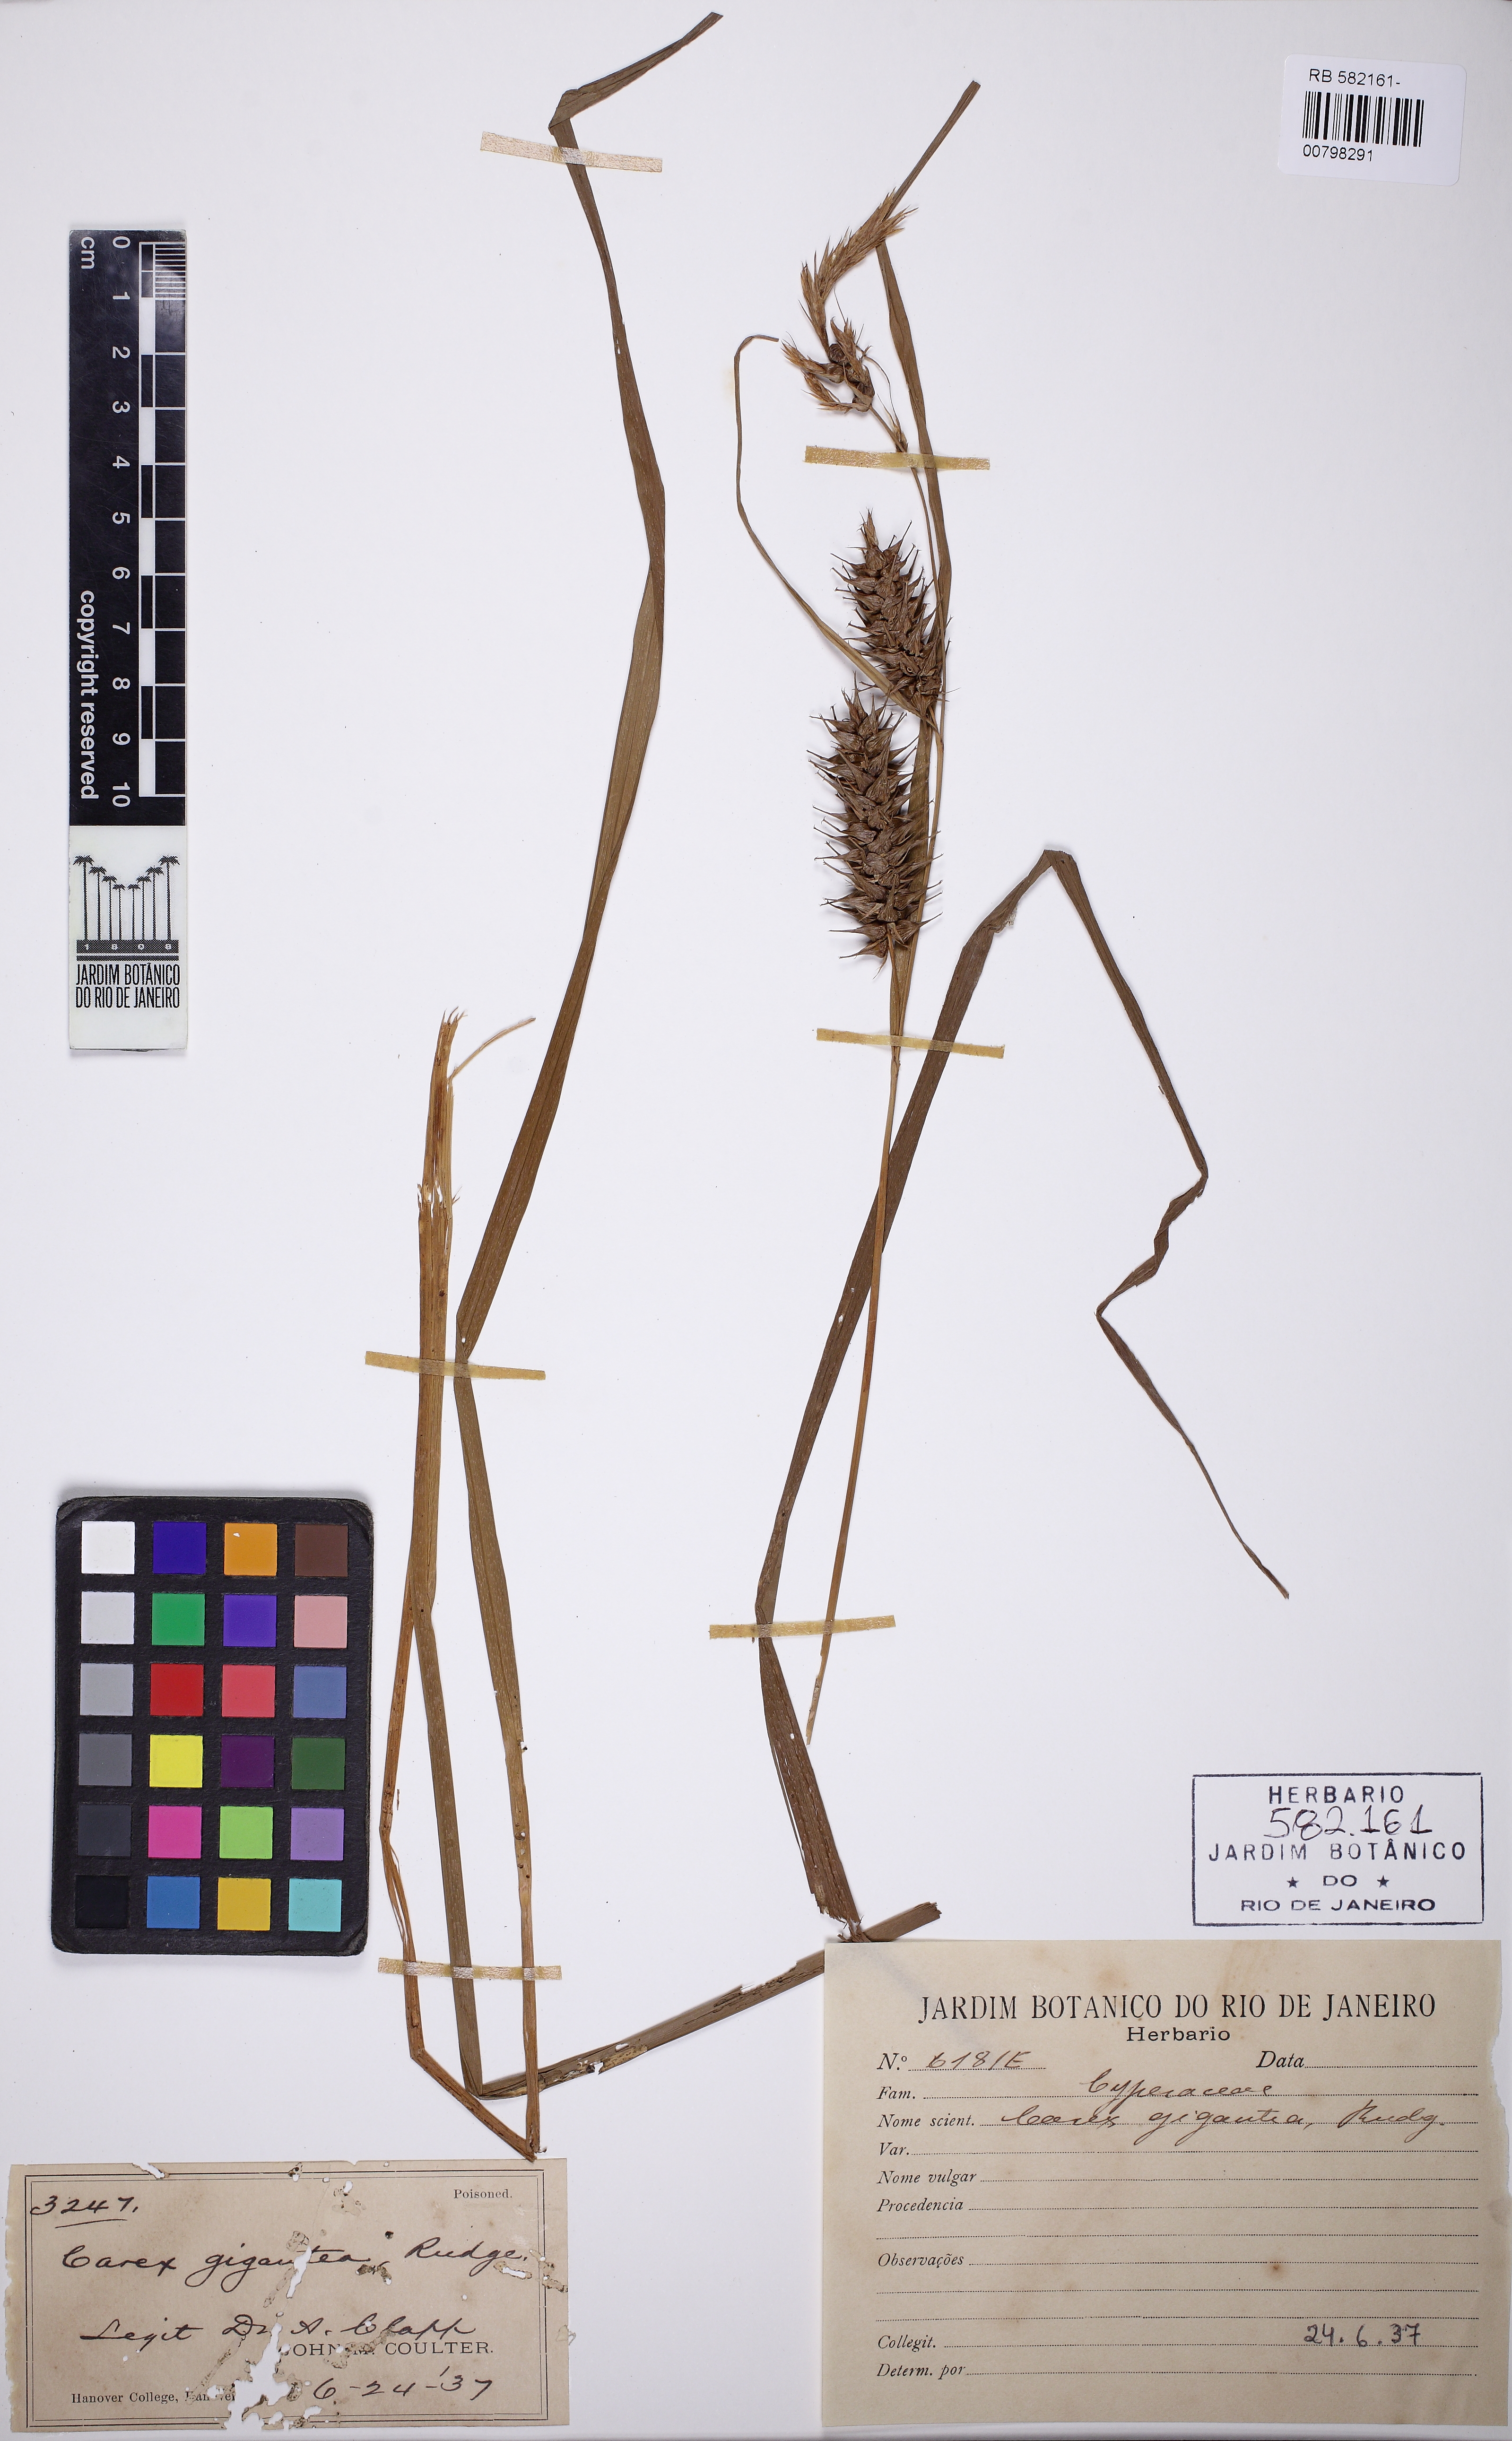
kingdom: Plantae
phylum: Tracheophyta
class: Liliopsida
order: Poales
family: Cyperaceae
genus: Carex
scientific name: Carex gigantea
